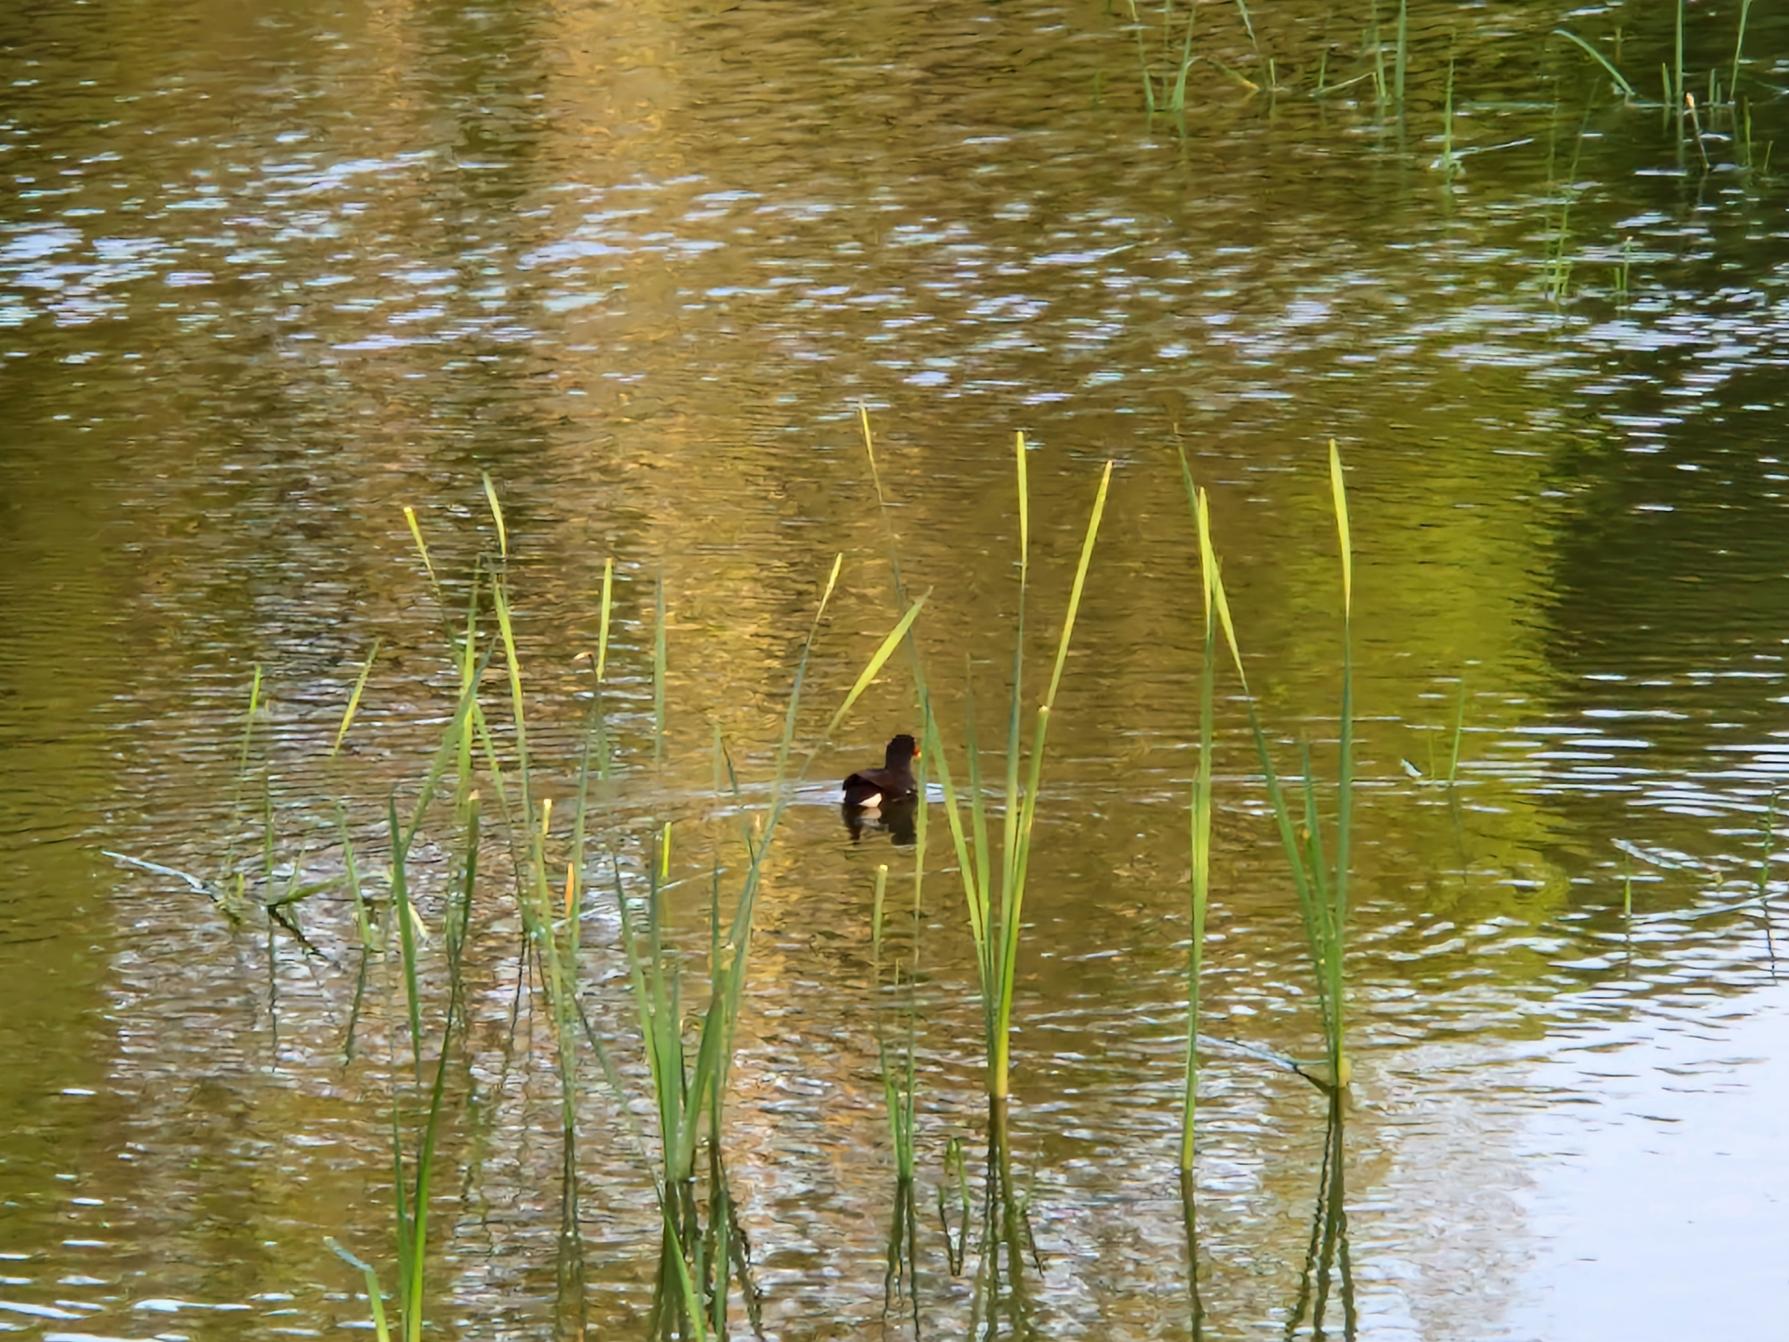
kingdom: Animalia
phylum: Chordata
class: Aves
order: Gruiformes
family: Rallidae
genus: Gallinula
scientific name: Gallinula chloropus
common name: Grønbenet rørhøne
